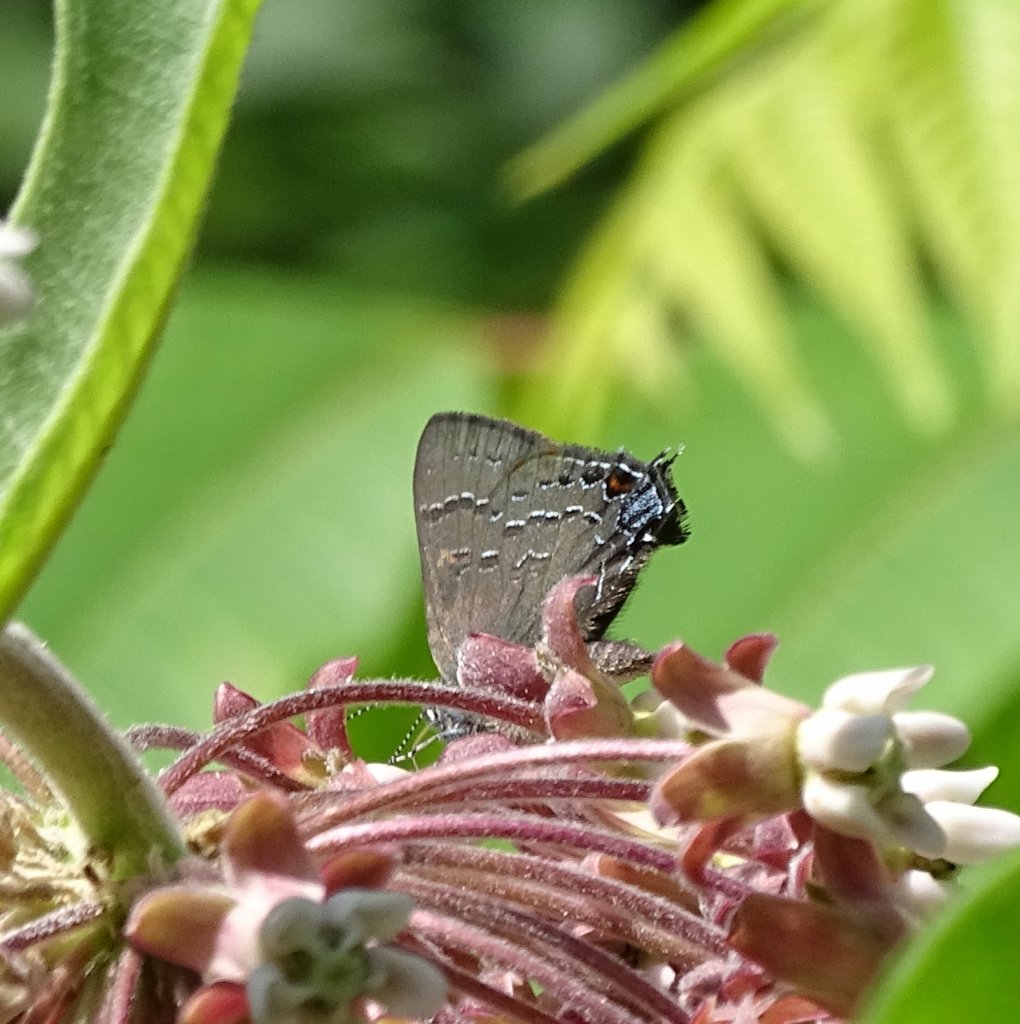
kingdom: Animalia
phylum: Arthropoda
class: Insecta
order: Lepidoptera
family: Lycaenidae
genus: Satyrium
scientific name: Satyrium calanus
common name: Banded Hairstreak
